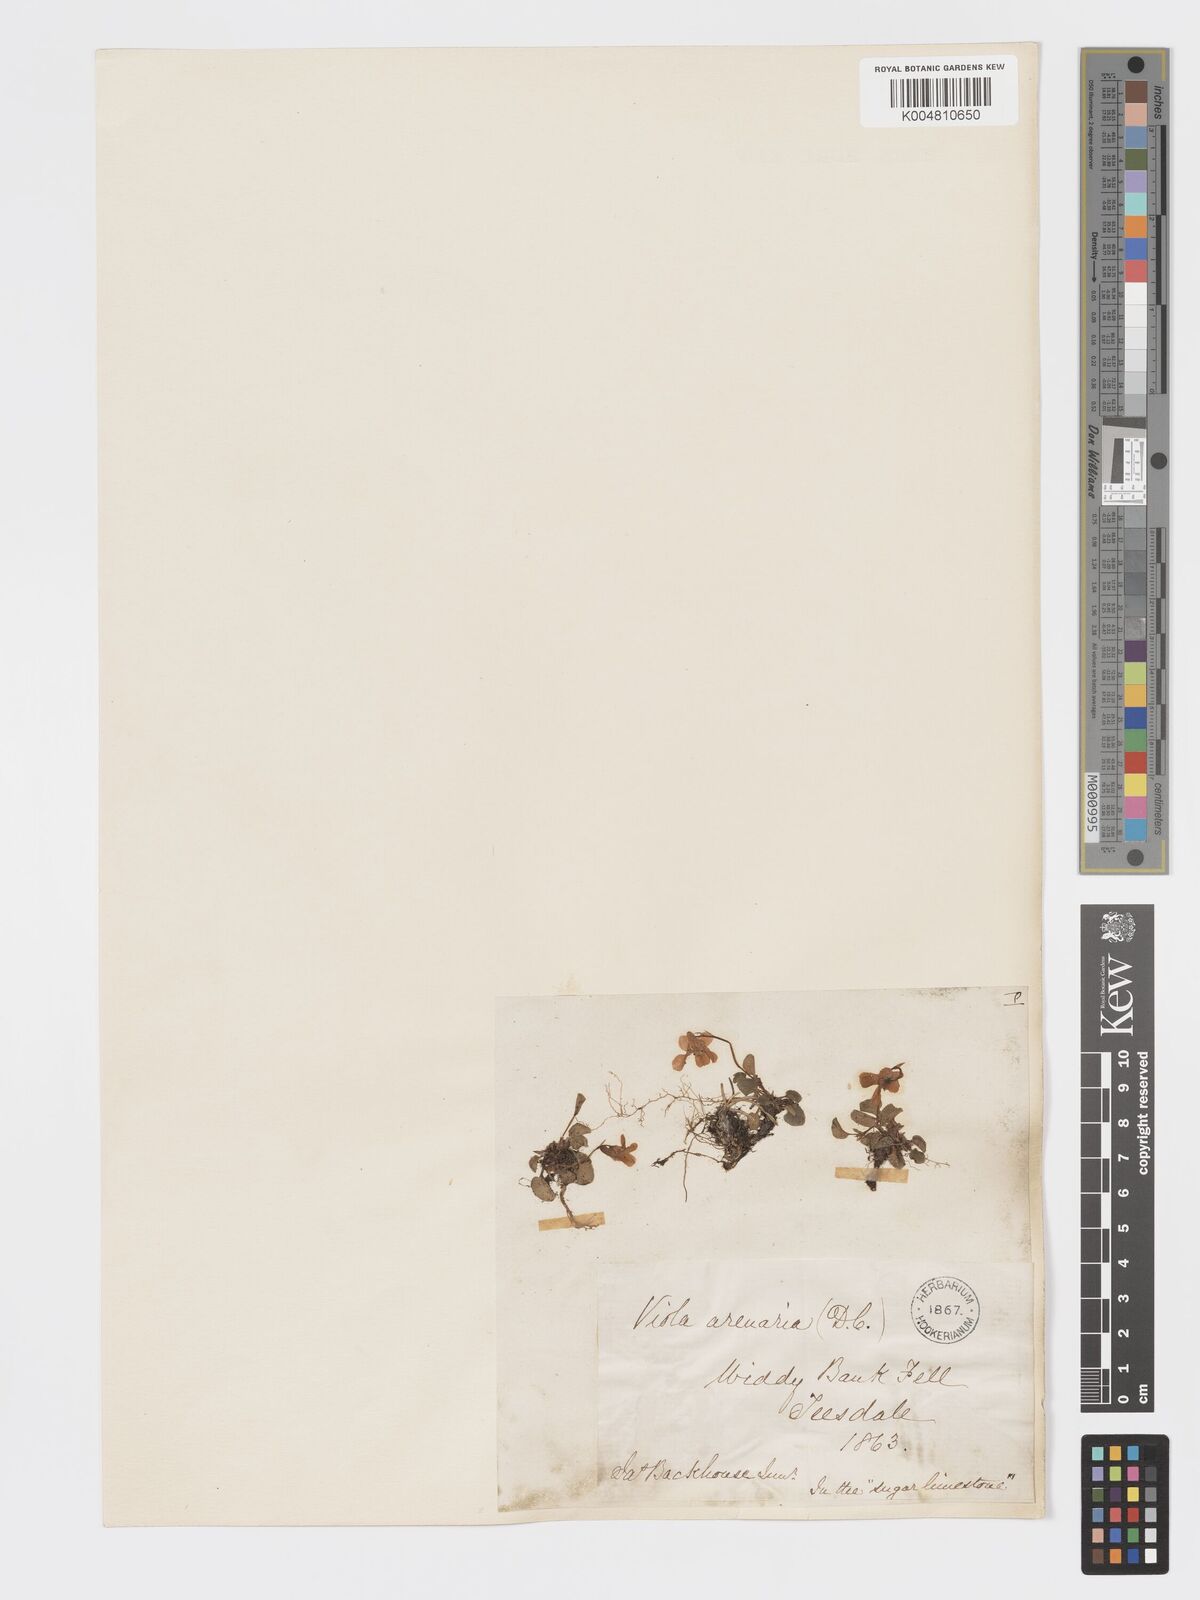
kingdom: Plantae
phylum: Tracheophyta
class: Magnoliopsida
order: Malpighiales
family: Violaceae
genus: Viola
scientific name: Viola rupestris
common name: Teesdale violet
